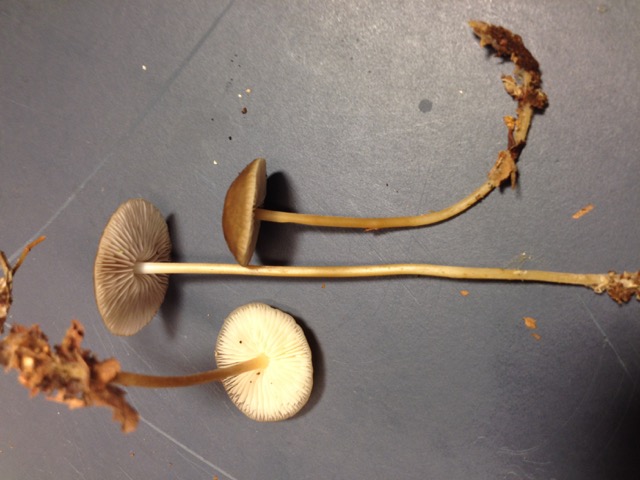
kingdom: Fungi
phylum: Basidiomycota
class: Agaricomycetes
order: Agaricales
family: Physalacriaceae
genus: Strobilurus
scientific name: Strobilurus esculentus
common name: gran-koglehat
